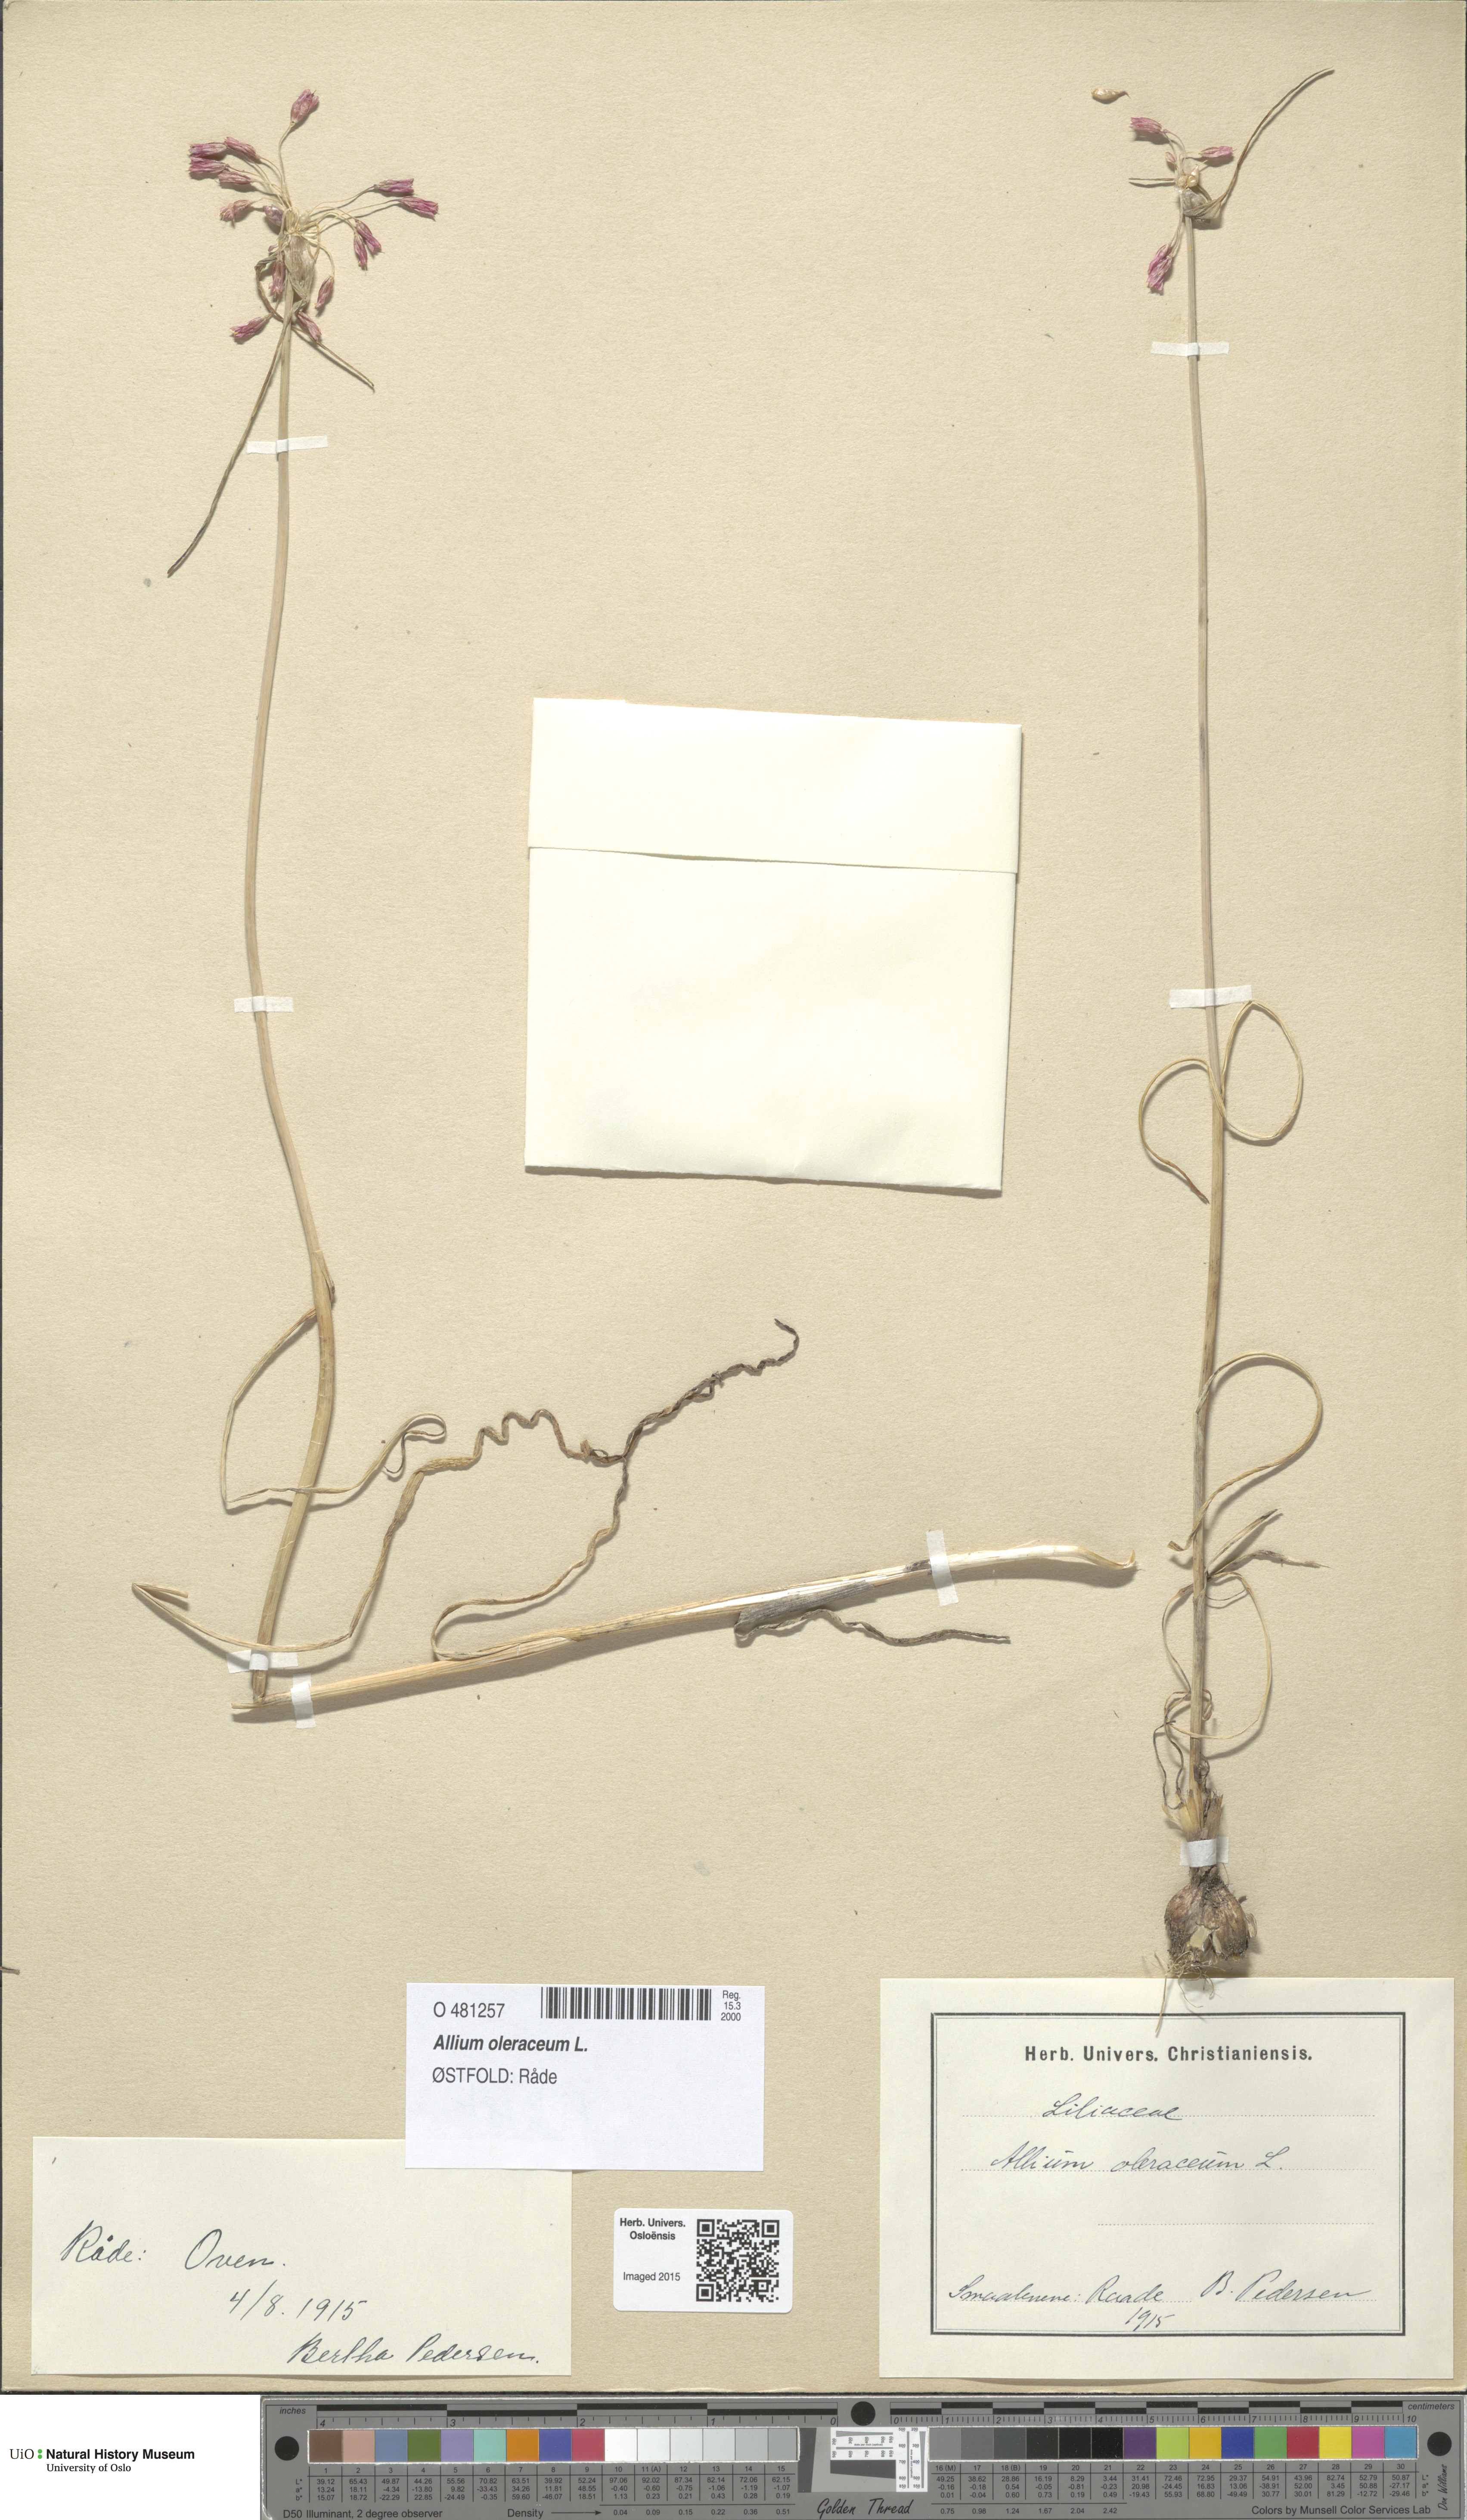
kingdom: Plantae
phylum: Tracheophyta
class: Liliopsida
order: Asparagales
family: Amaryllidaceae
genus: Allium
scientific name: Allium oleraceum
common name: Field garlic
